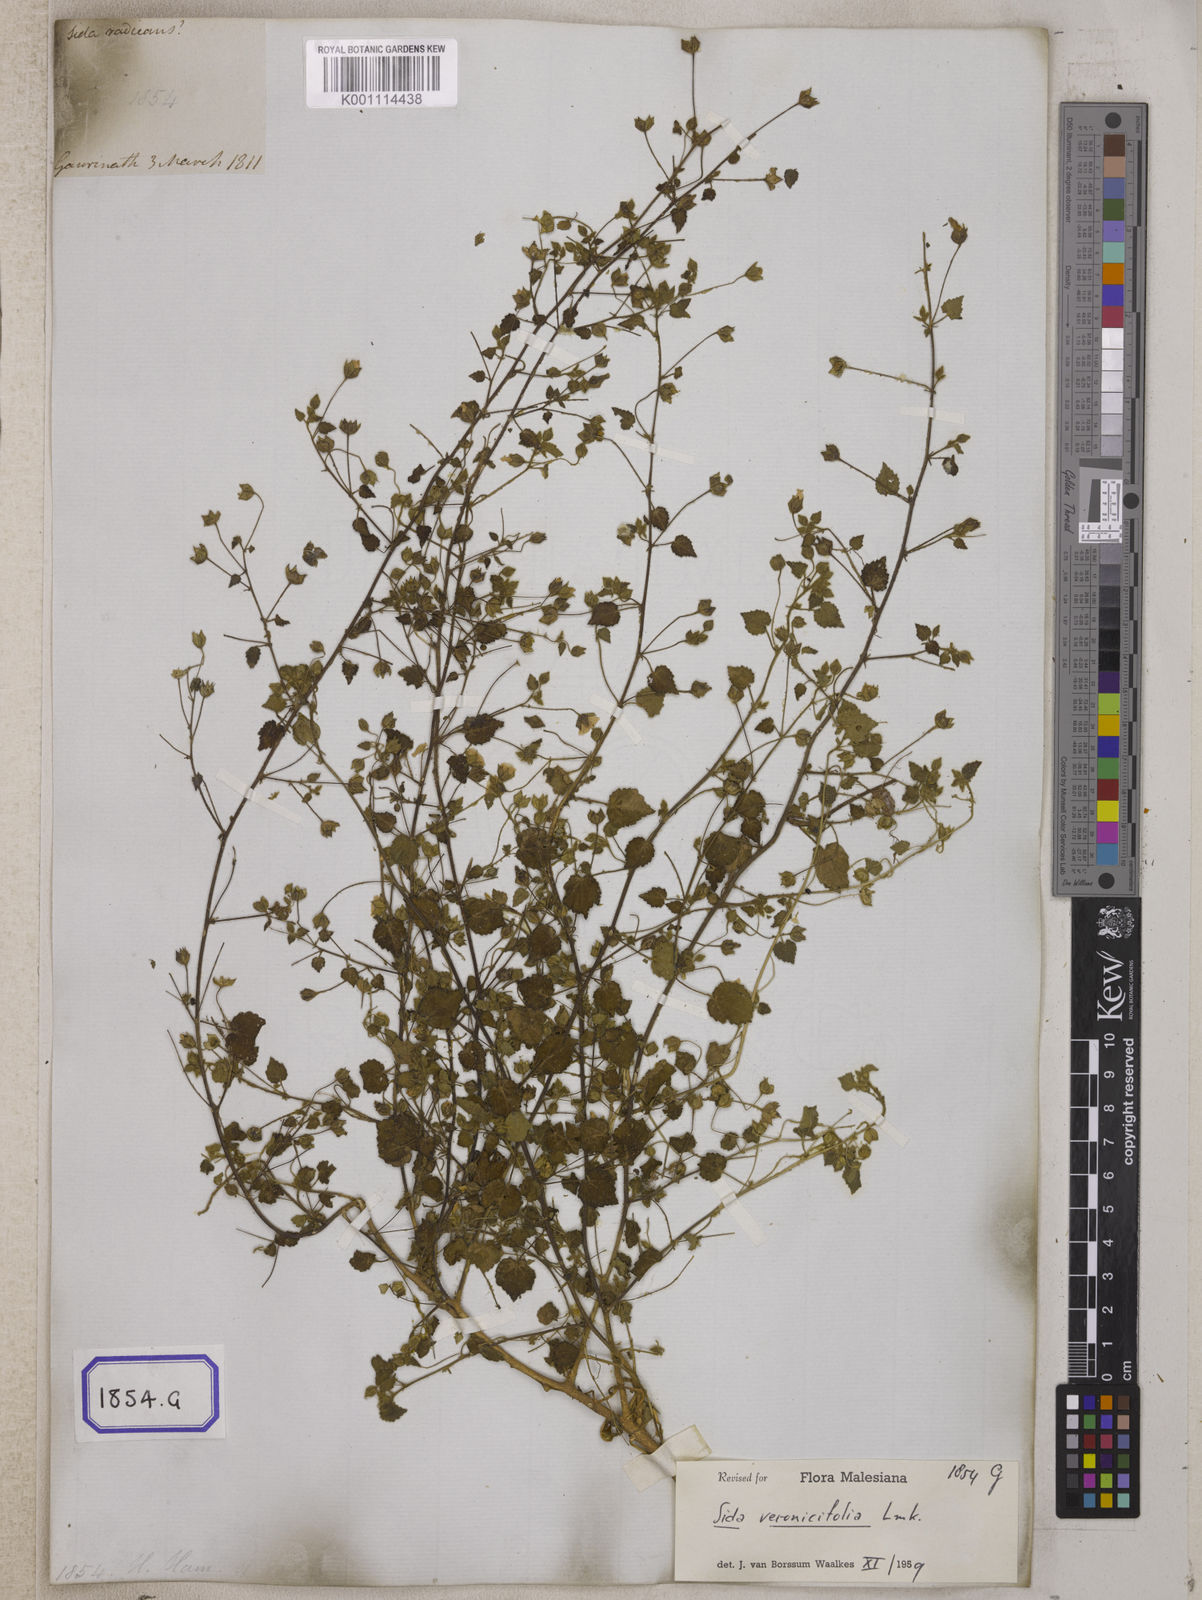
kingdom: Plantae
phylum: Tracheophyta
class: Magnoliopsida
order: Malvales
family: Malvaceae
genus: Sida
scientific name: Sida cordata
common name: Long-stalk sida
